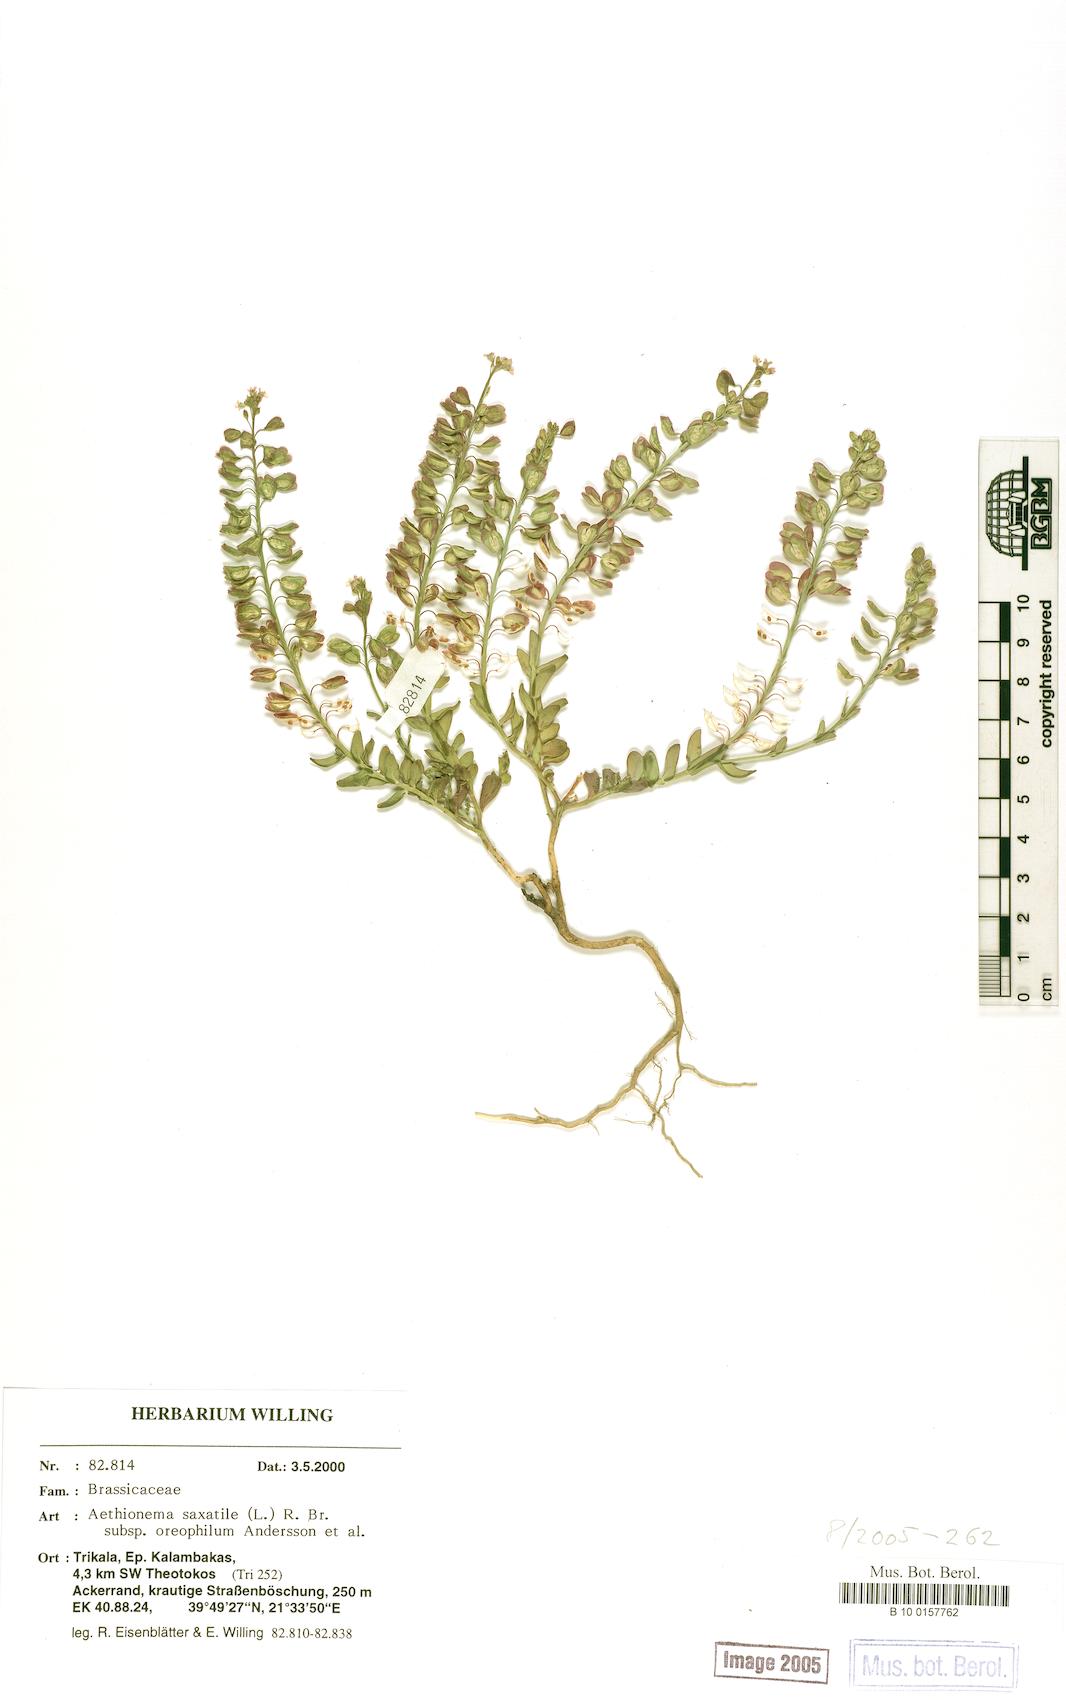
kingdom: Plantae
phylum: Tracheophyta
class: Magnoliopsida
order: Brassicales
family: Brassicaceae
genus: Aethionema
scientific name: Aethionema saxatile
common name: Burnt candytuft
